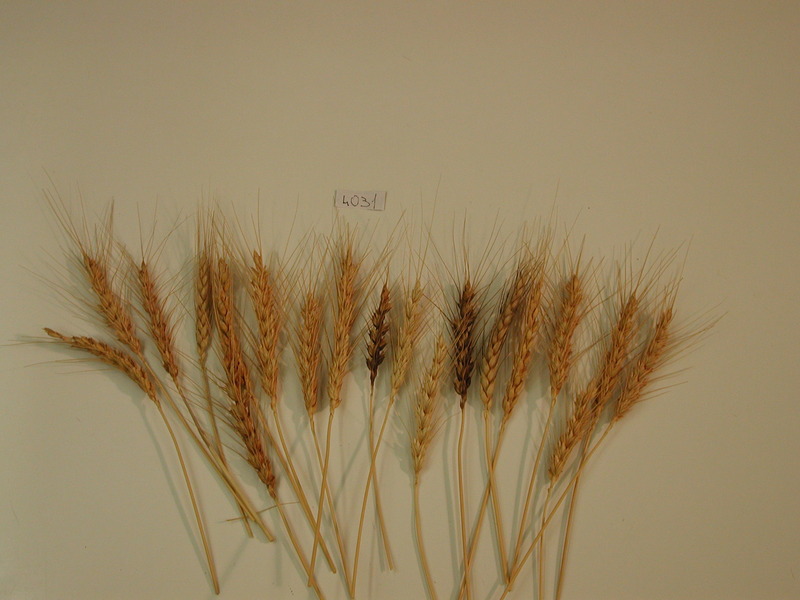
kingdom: Plantae
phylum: Tracheophyta
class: Liliopsida
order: Poales
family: Poaceae
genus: Triticum
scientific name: Triticum turgidum
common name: Wheat
